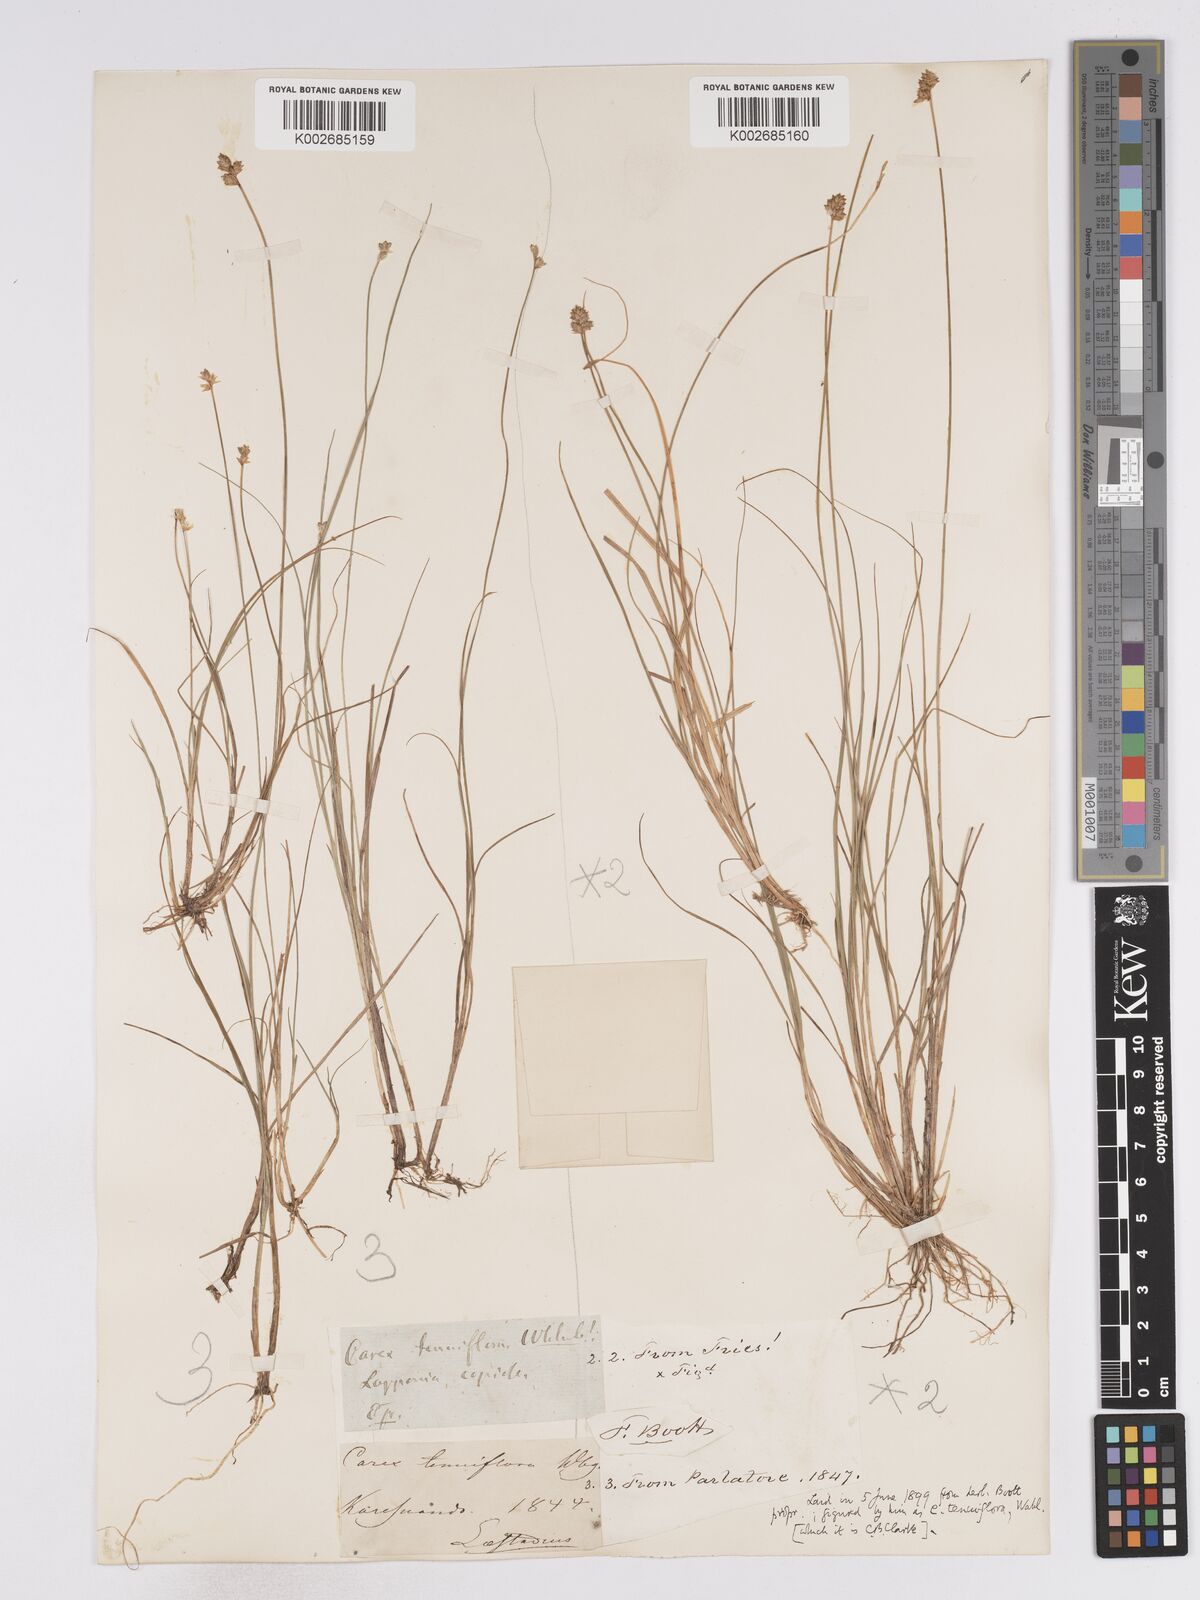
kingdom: Plantae
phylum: Tracheophyta
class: Liliopsida
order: Poales
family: Cyperaceae
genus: Carex
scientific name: Carex tenuiflora
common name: Sparse-flowered sedge
